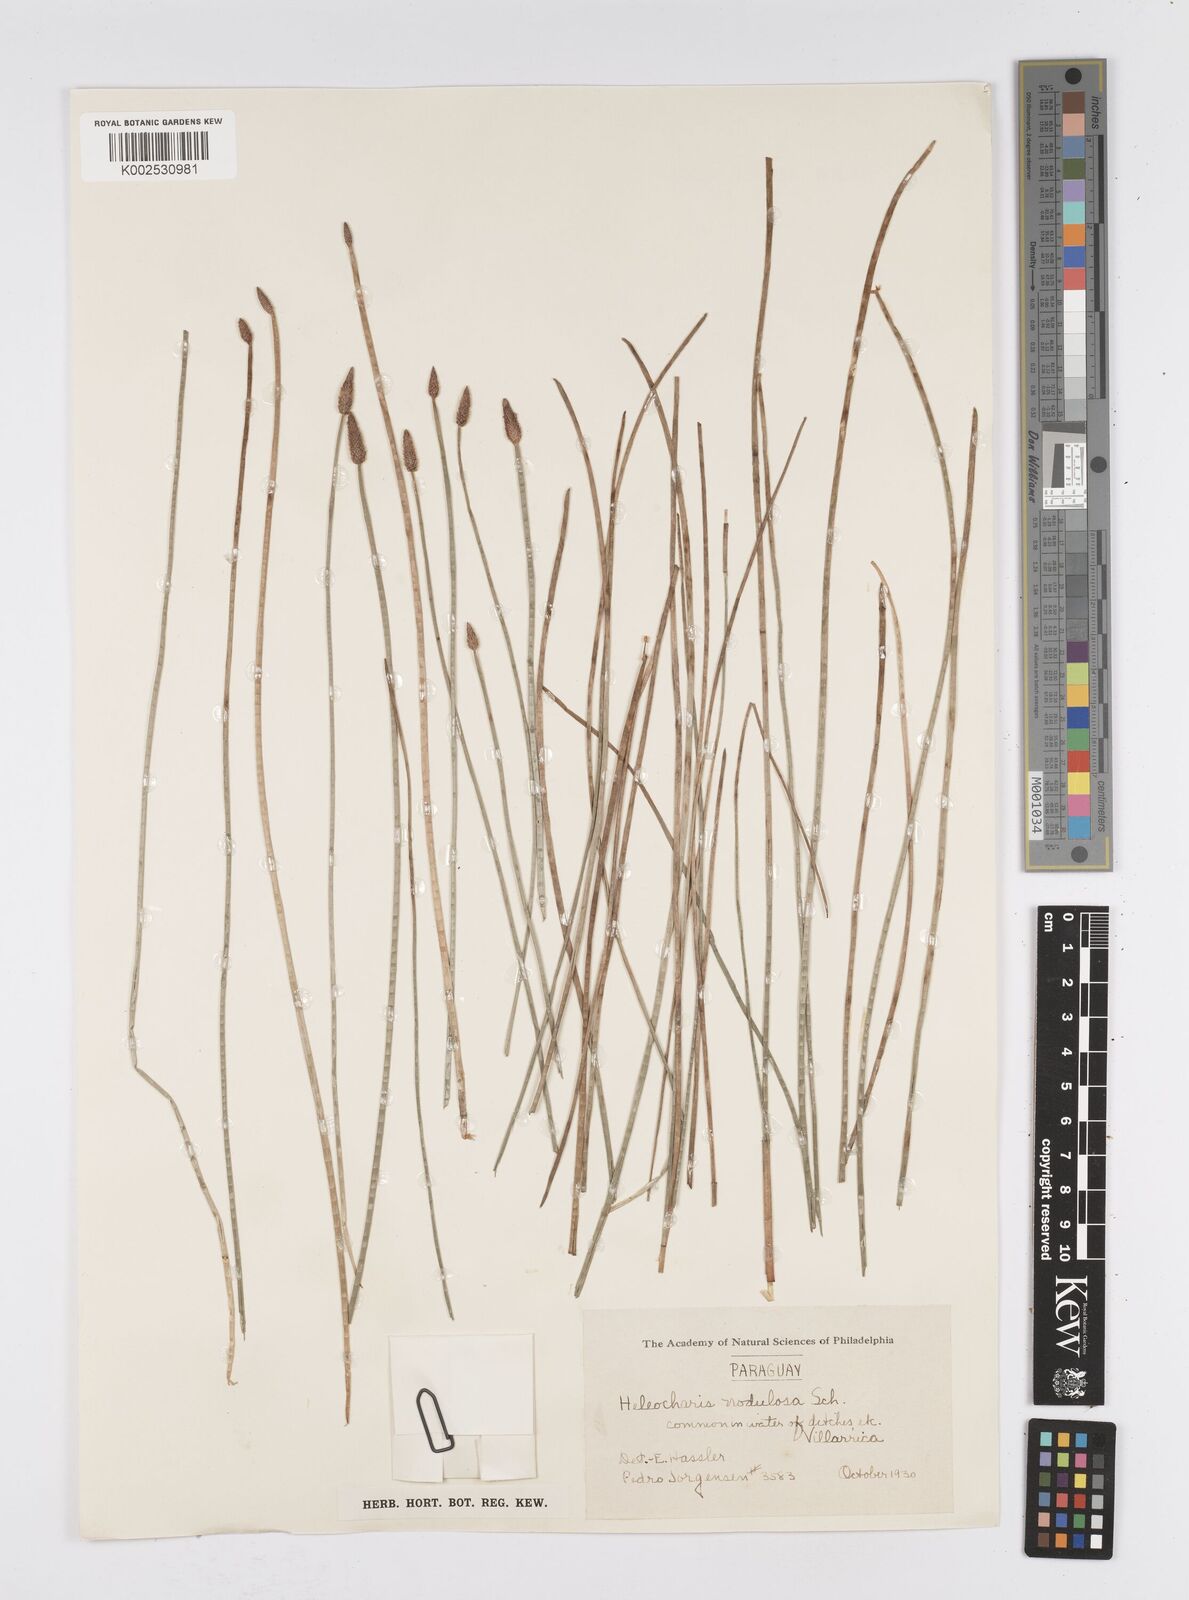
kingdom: Plantae
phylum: Tracheophyta
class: Liliopsida
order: Poales
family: Cyperaceae
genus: Eleocharis
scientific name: Eleocharis montana
